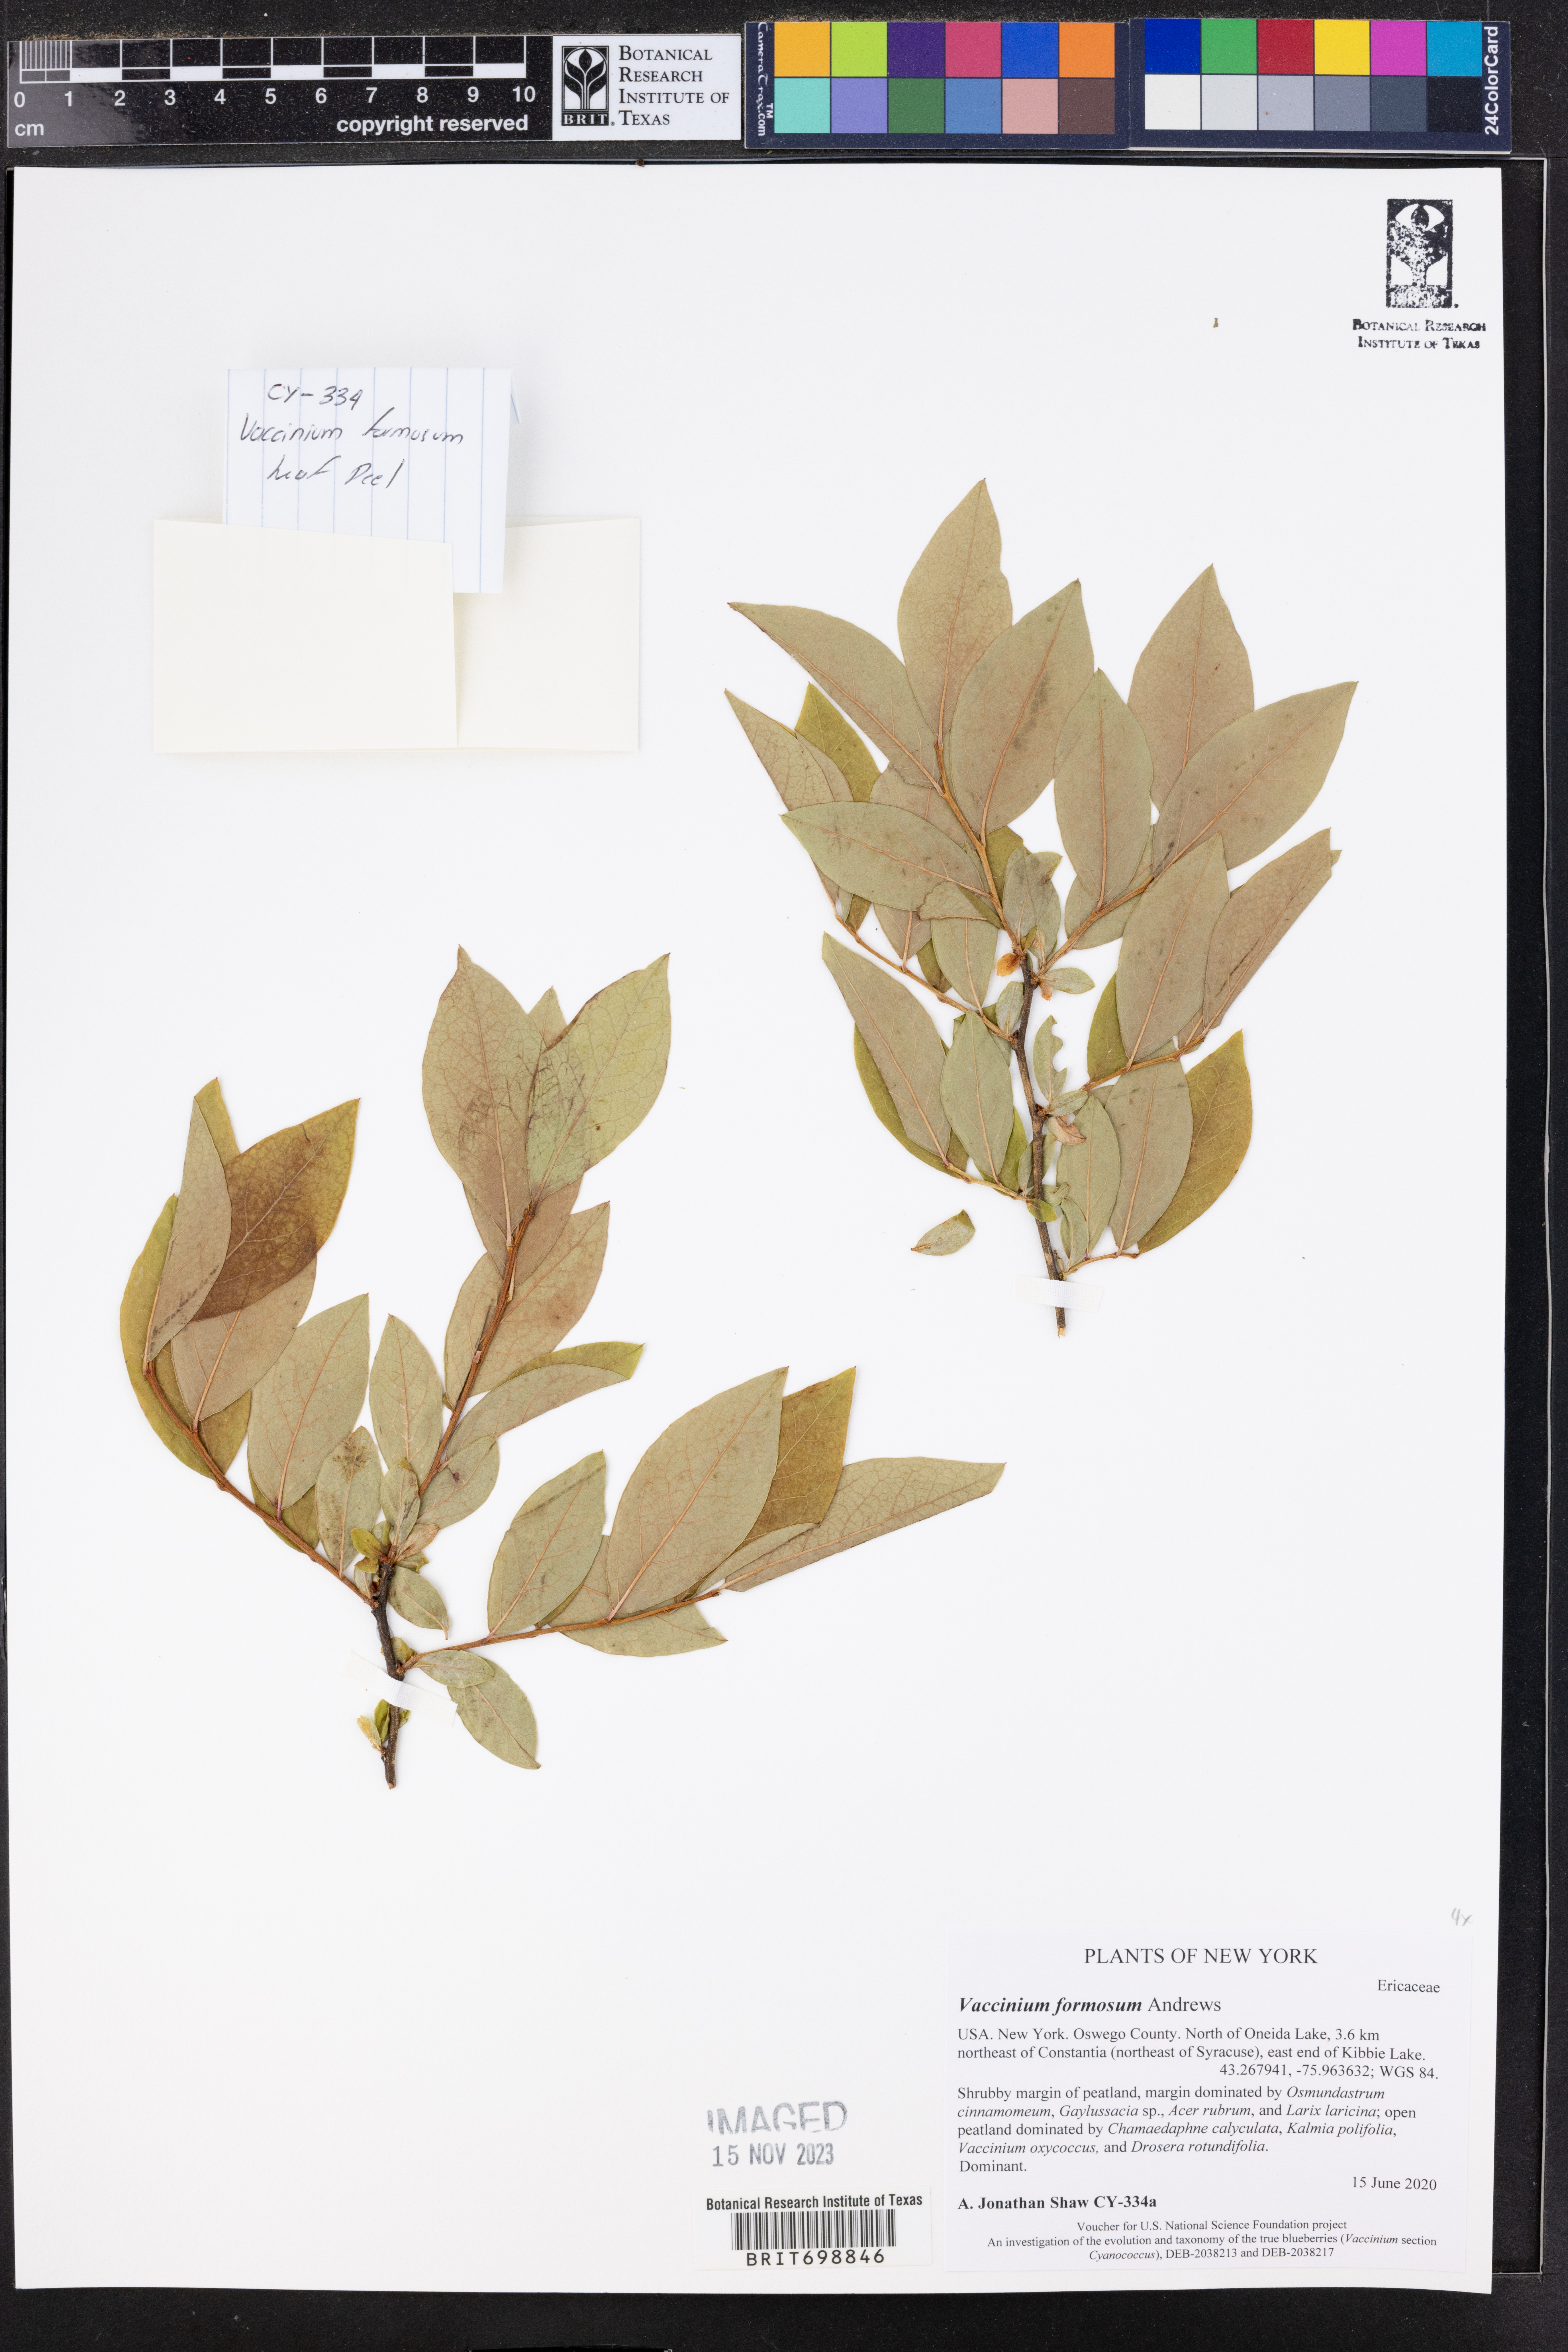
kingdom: Plantae
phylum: Tracheophyta
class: Magnoliopsida
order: Ericales
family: Ericaceae
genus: Vaccinium
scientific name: Vaccinium corymbosum
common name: Blueberry
